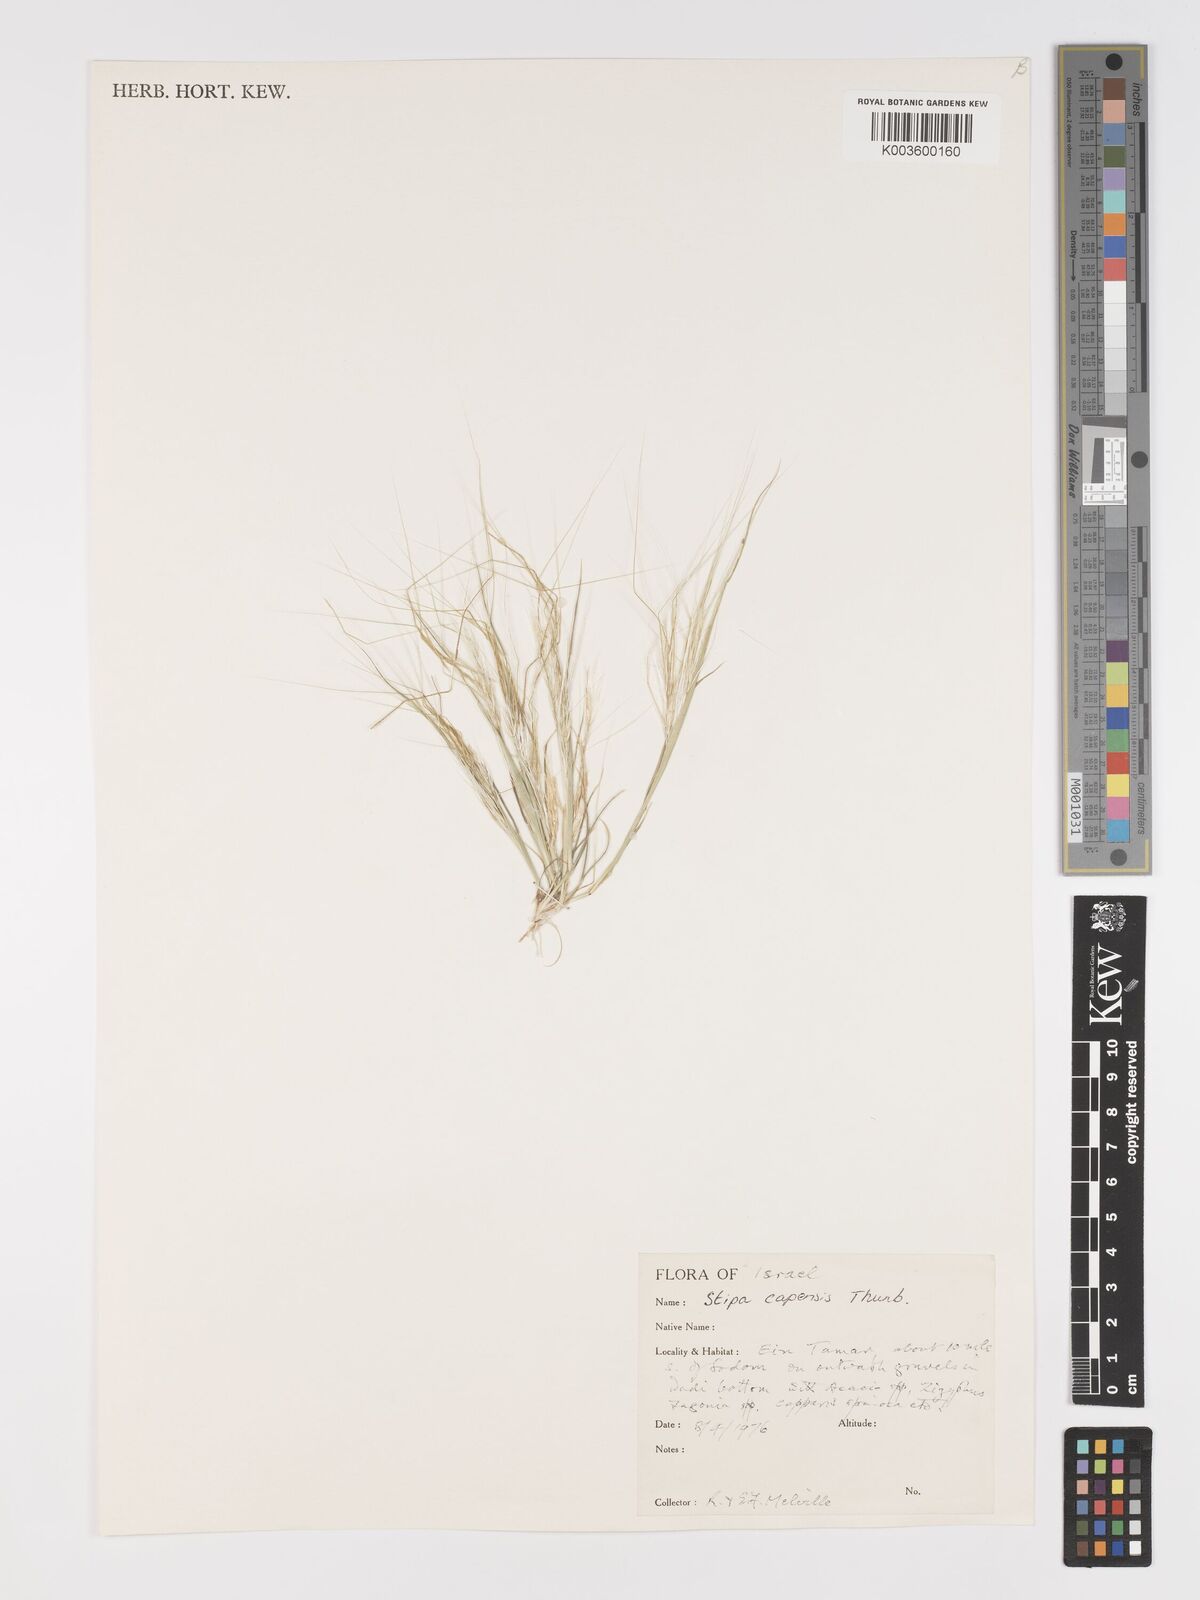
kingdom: Plantae
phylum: Tracheophyta
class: Liliopsida
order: Poales
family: Poaceae
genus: Stipellula
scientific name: Stipellula capensis
